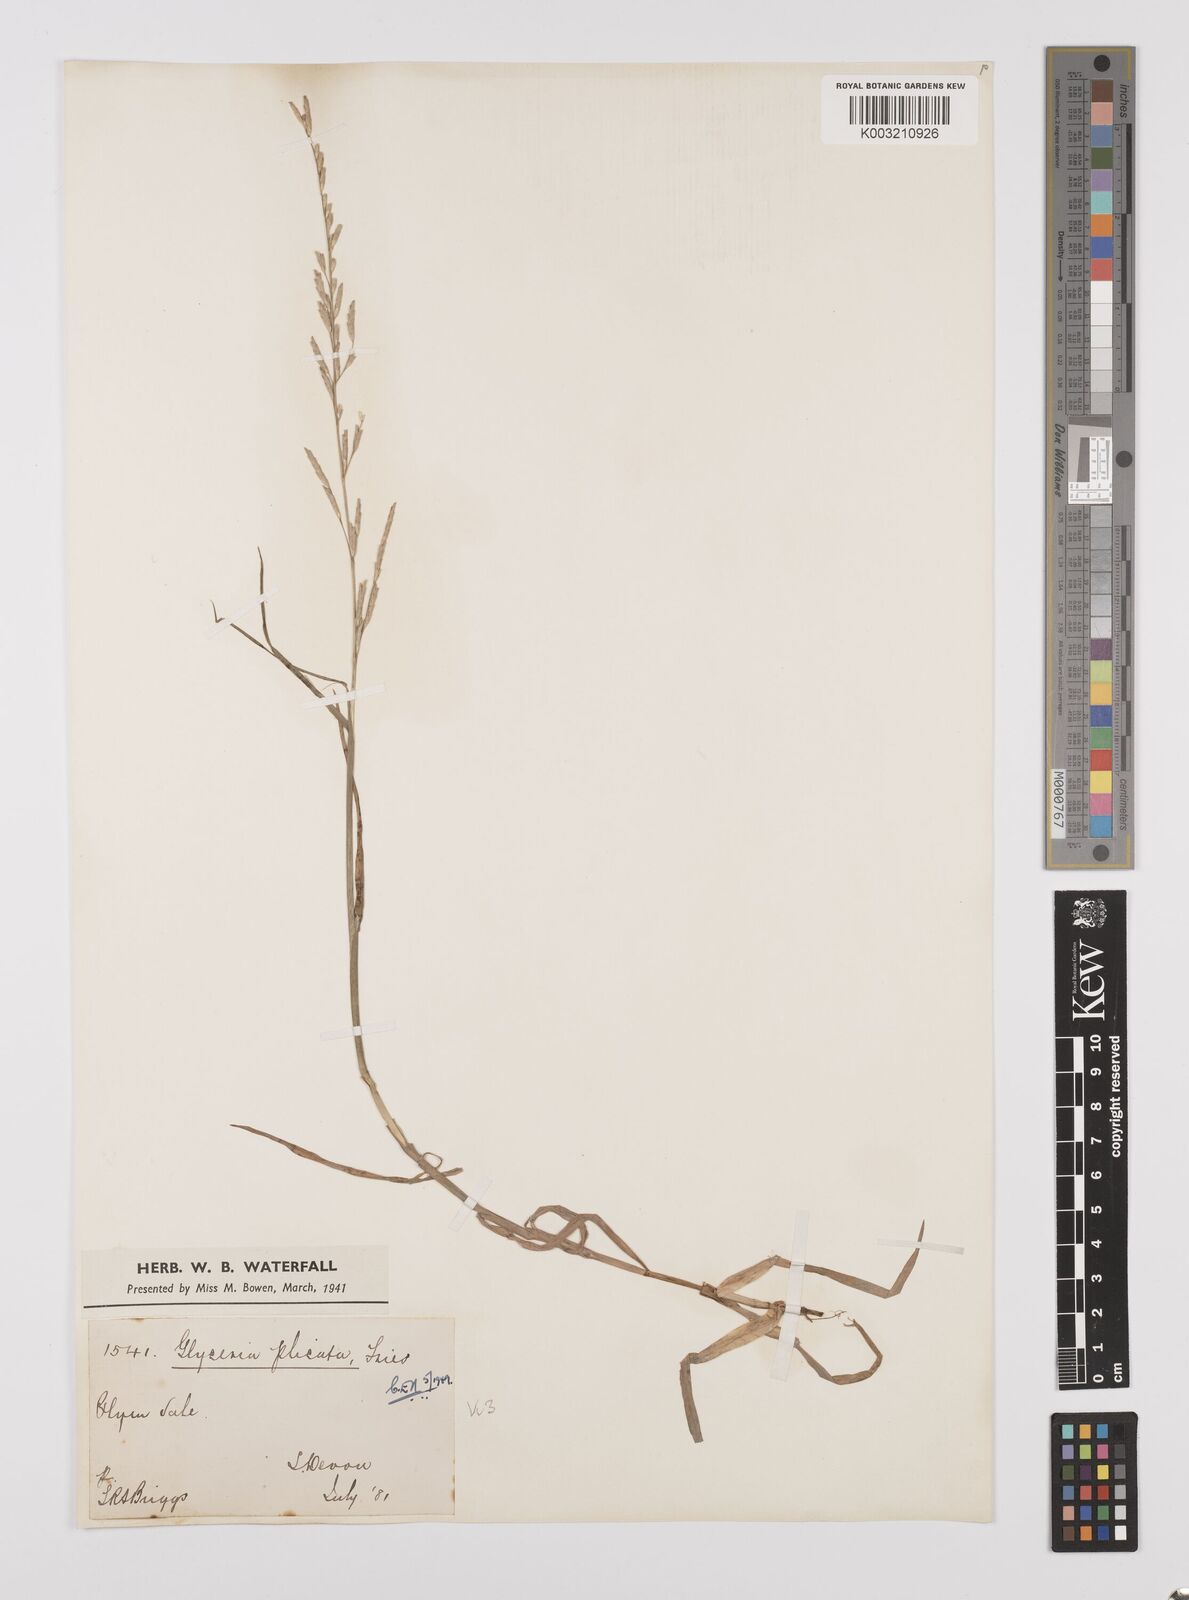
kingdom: Plantae
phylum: Tracheophyta
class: Liliopsida
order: Poales
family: Poaceae
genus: Glyceria
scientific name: Glyceria notata
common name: Plicate sweet-grass
